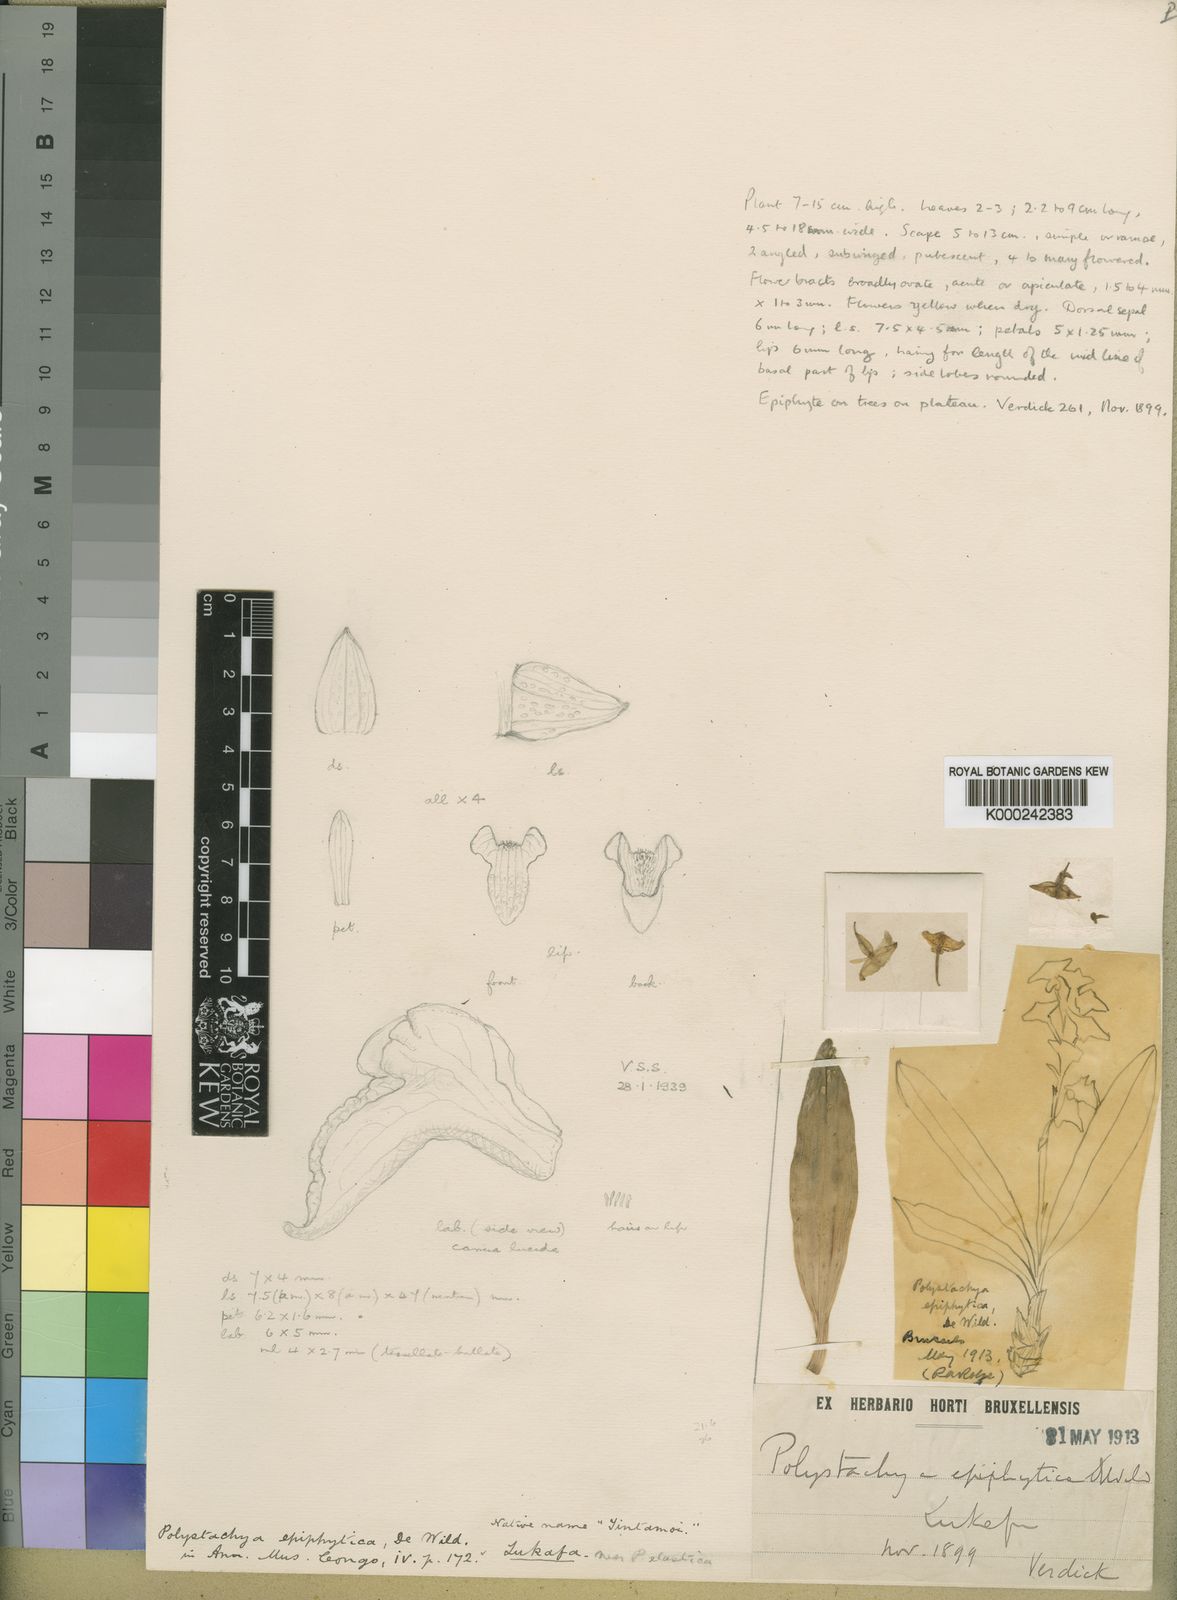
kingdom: Plantae
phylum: Tracheophyta
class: Liliopsida
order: Asparagales
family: Orchidaceae
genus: Polystachya
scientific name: Polystachya epiphytica
